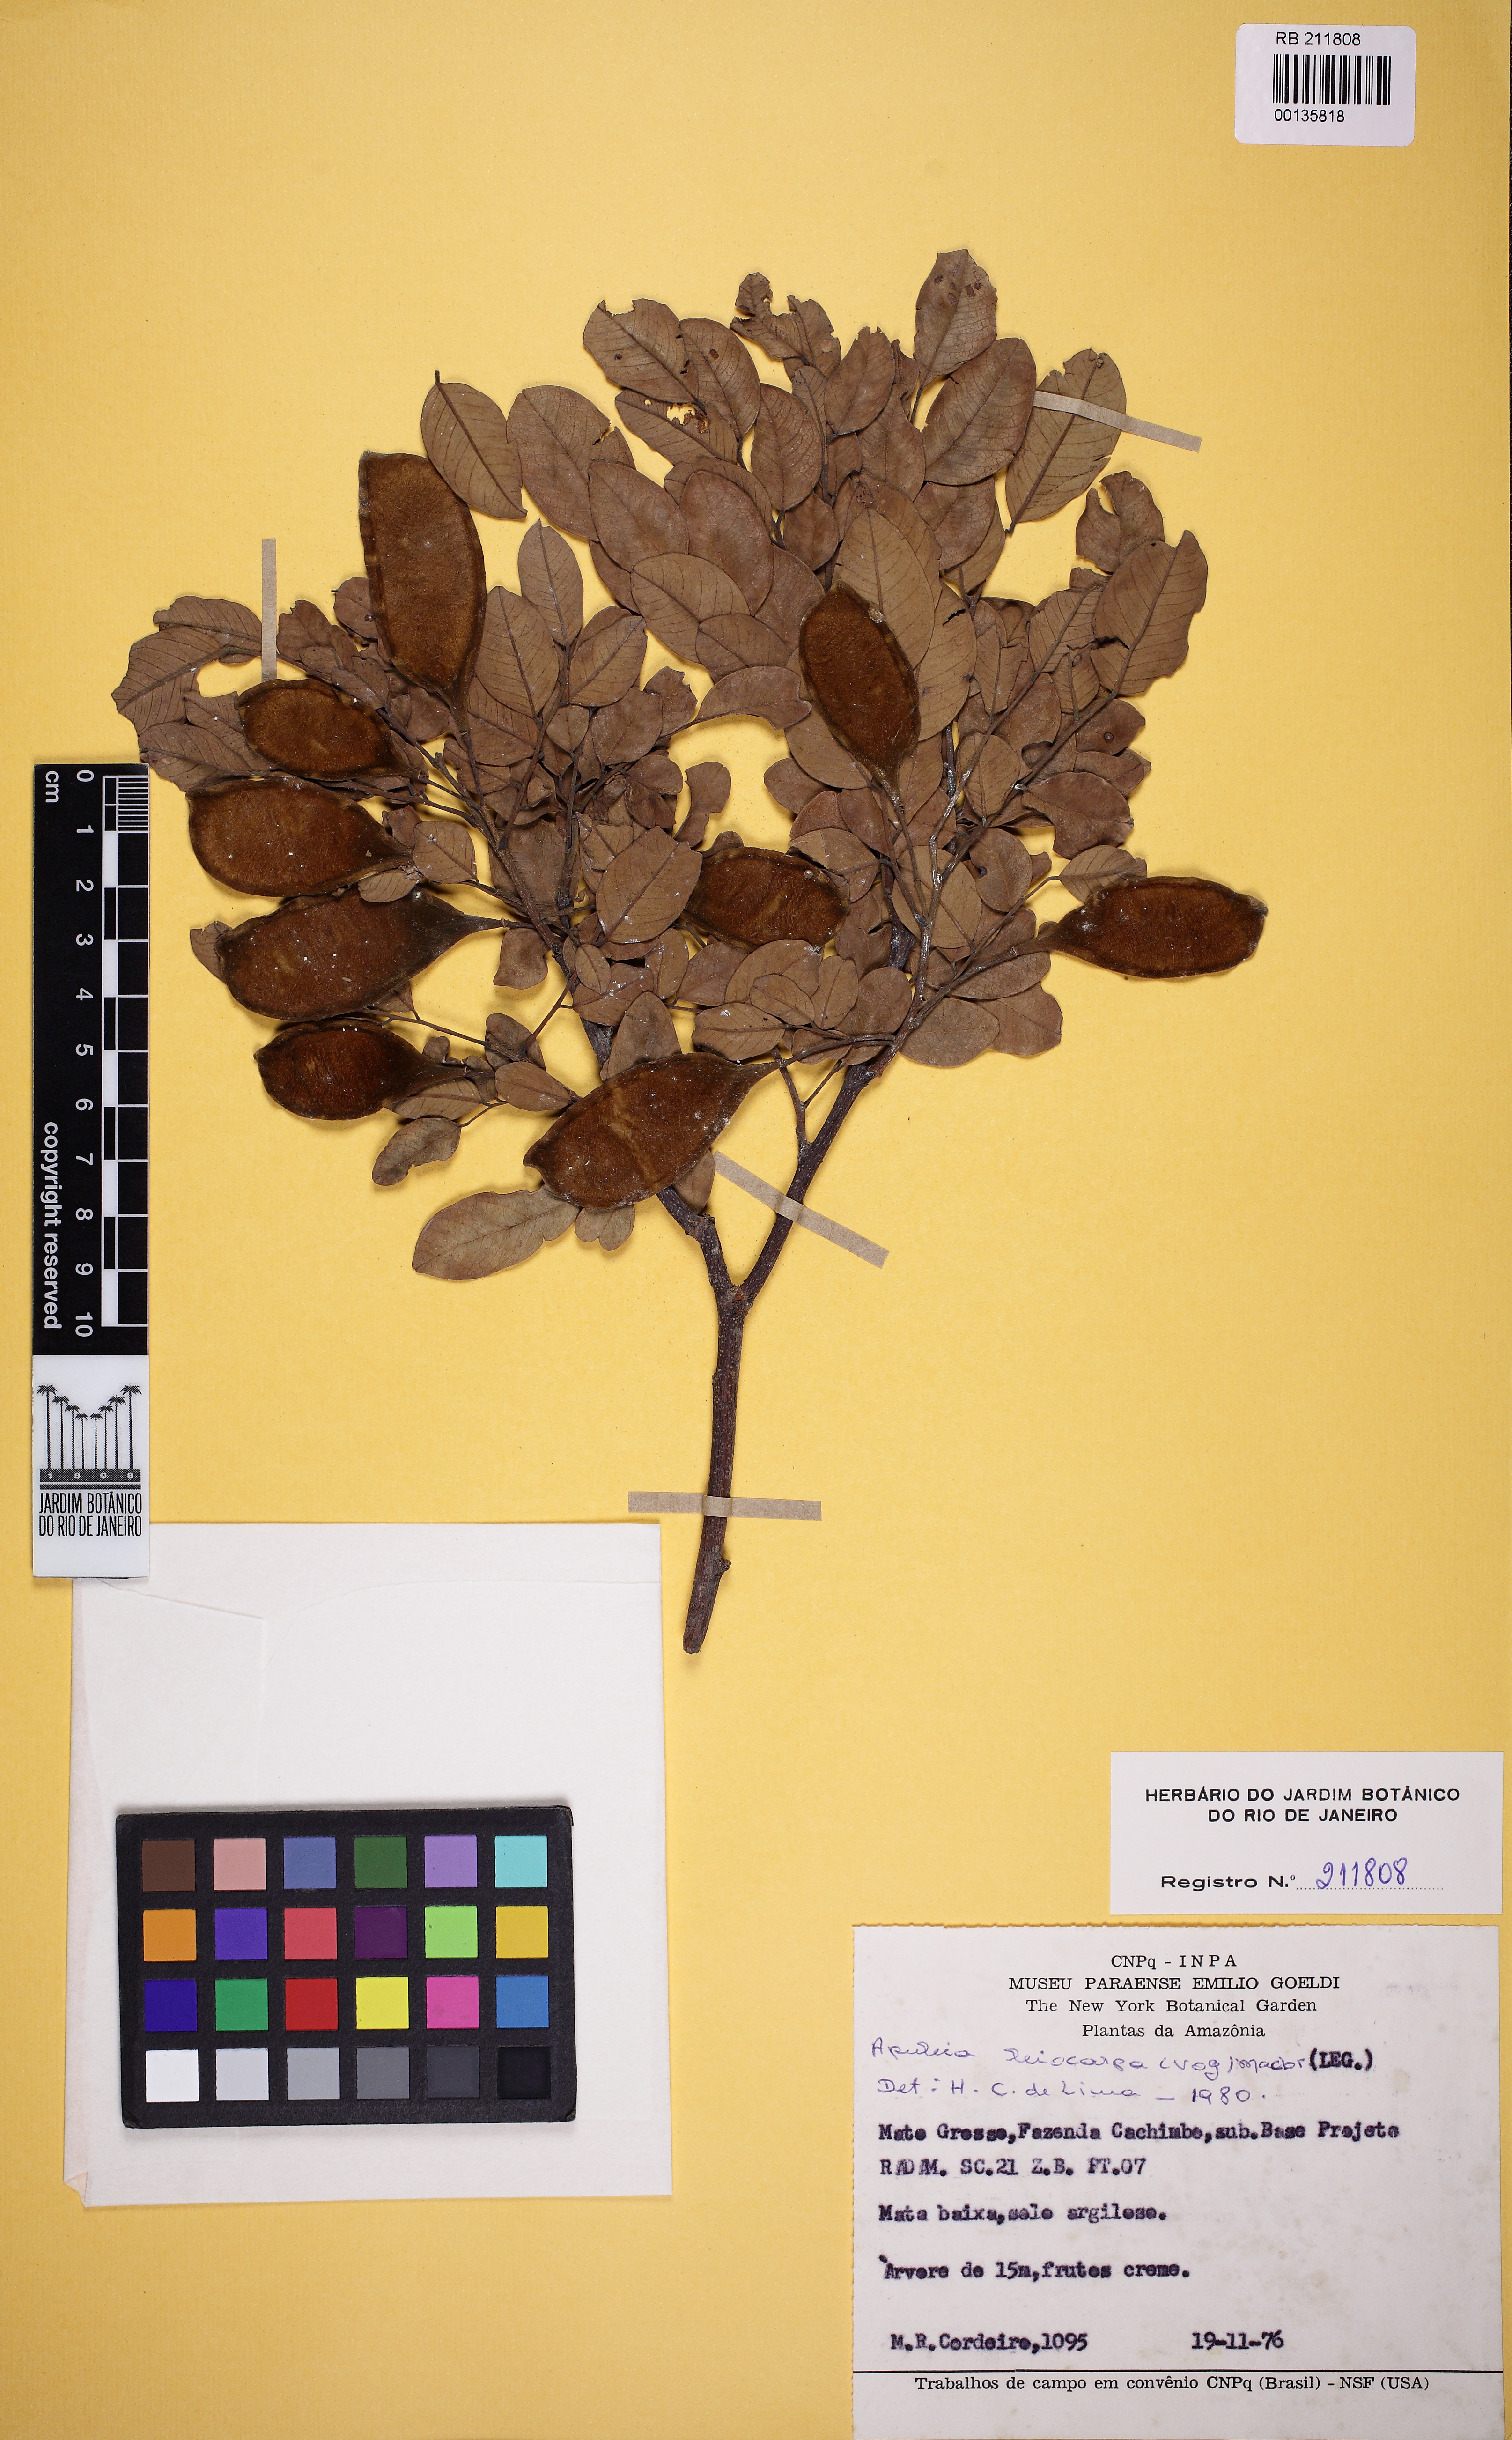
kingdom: Plantae
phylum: Tracheophyta
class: Magnoliopsida
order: Fabales
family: Fabaceae
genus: Apuleia
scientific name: Apuleia leiocarpa
